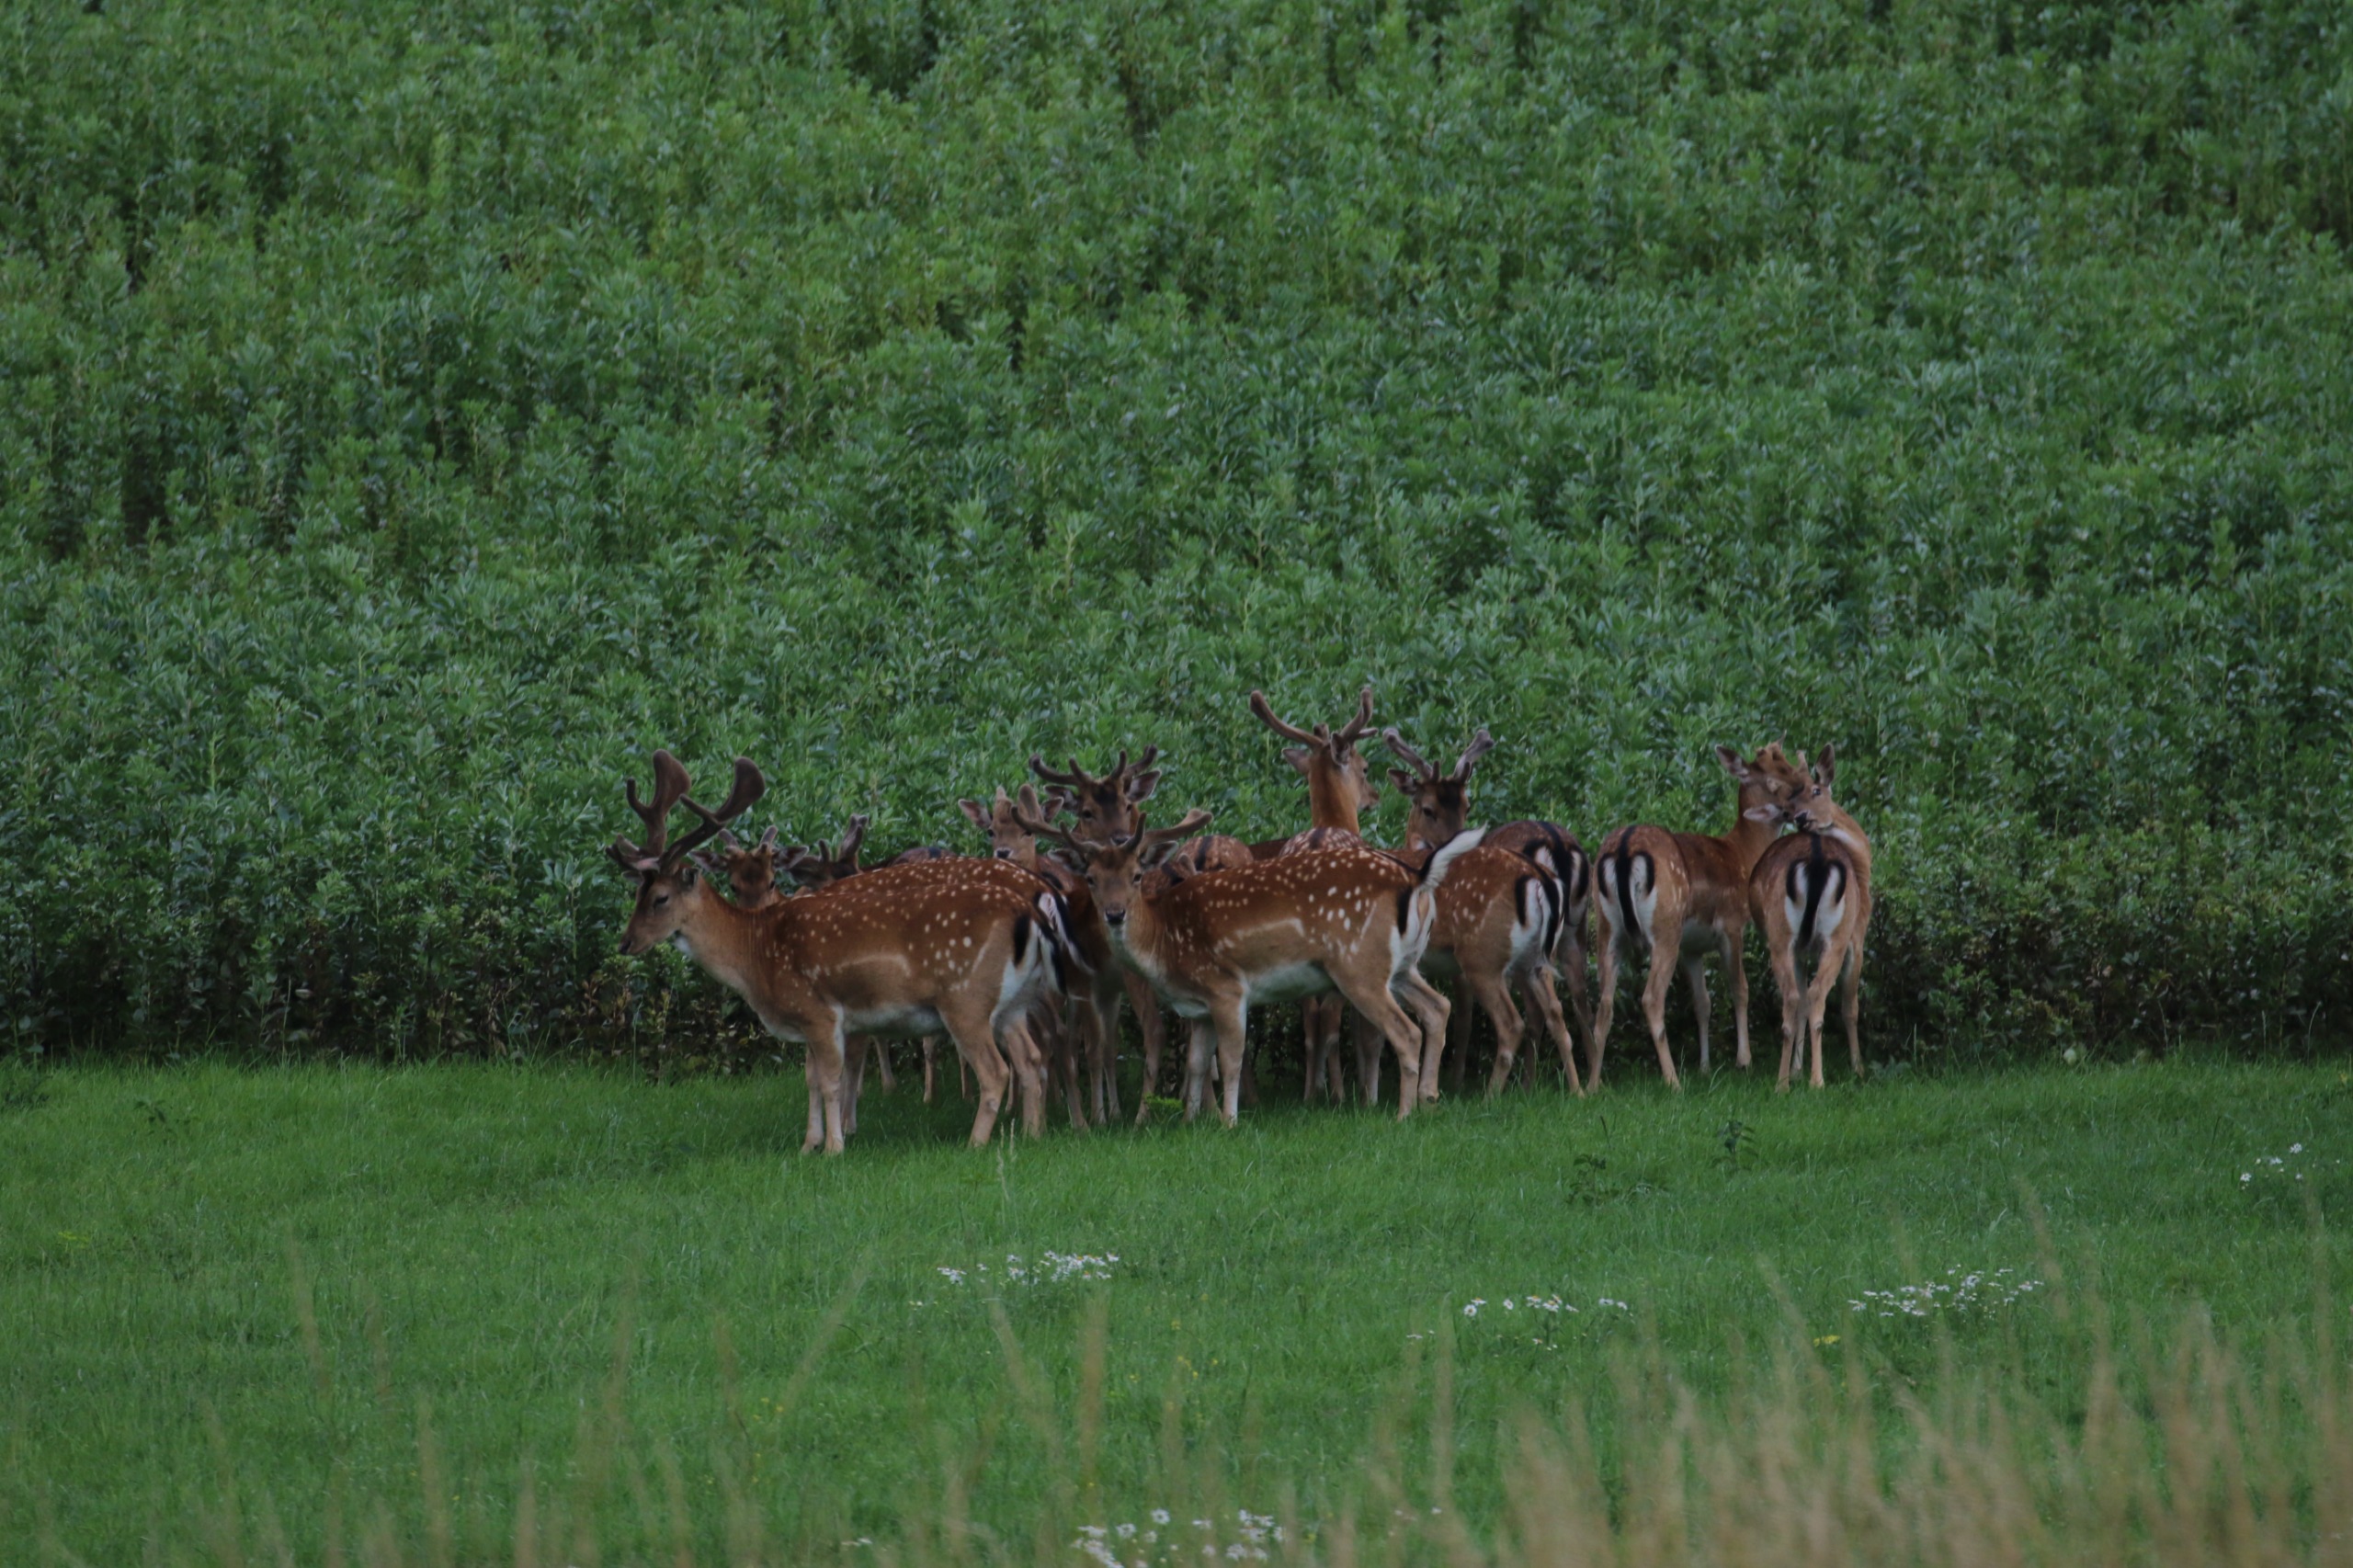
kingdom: Animalia
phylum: Chordata
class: Mammalia
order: Artiodactyla
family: Cervidae
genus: Dama
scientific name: Dama dama
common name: Dådyr
